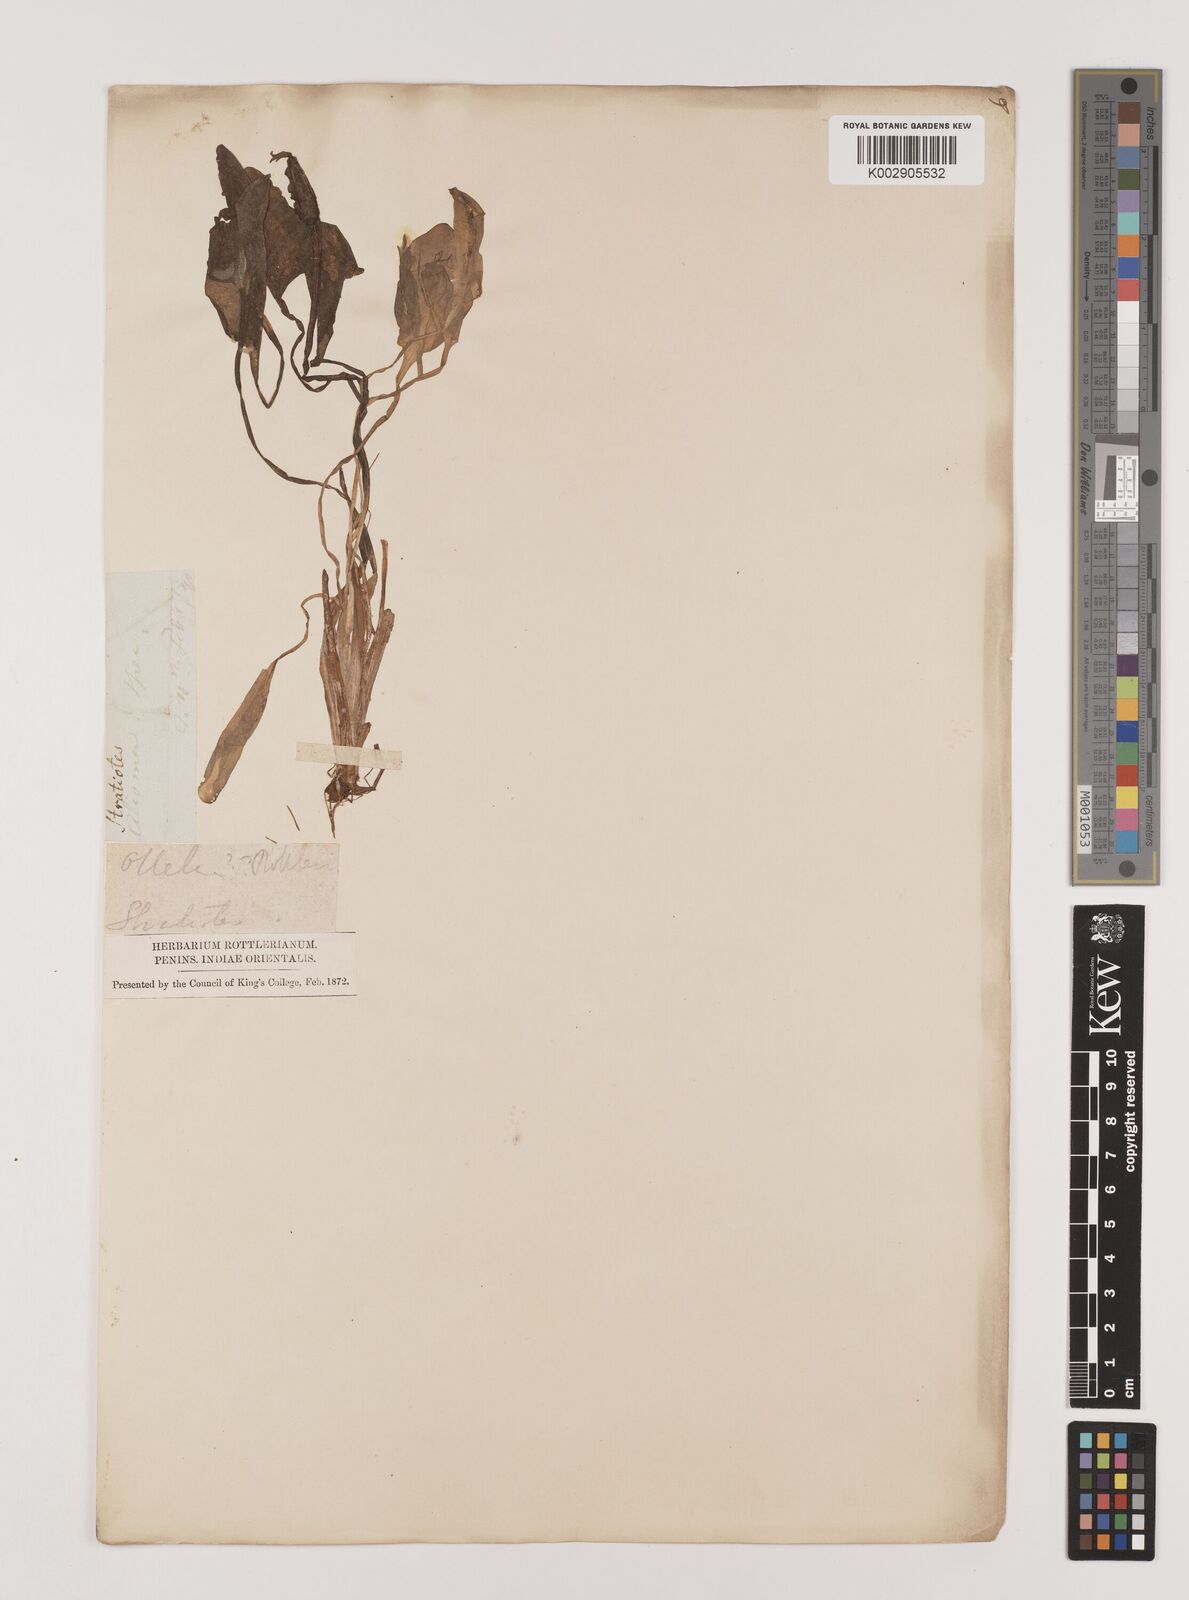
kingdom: Plantae
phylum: Tracheophyta
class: Liliopsida
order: Alismatales
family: Hydrocharitaceae
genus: Ottelia
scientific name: Ottelia alismoides
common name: Duck-lettuce
